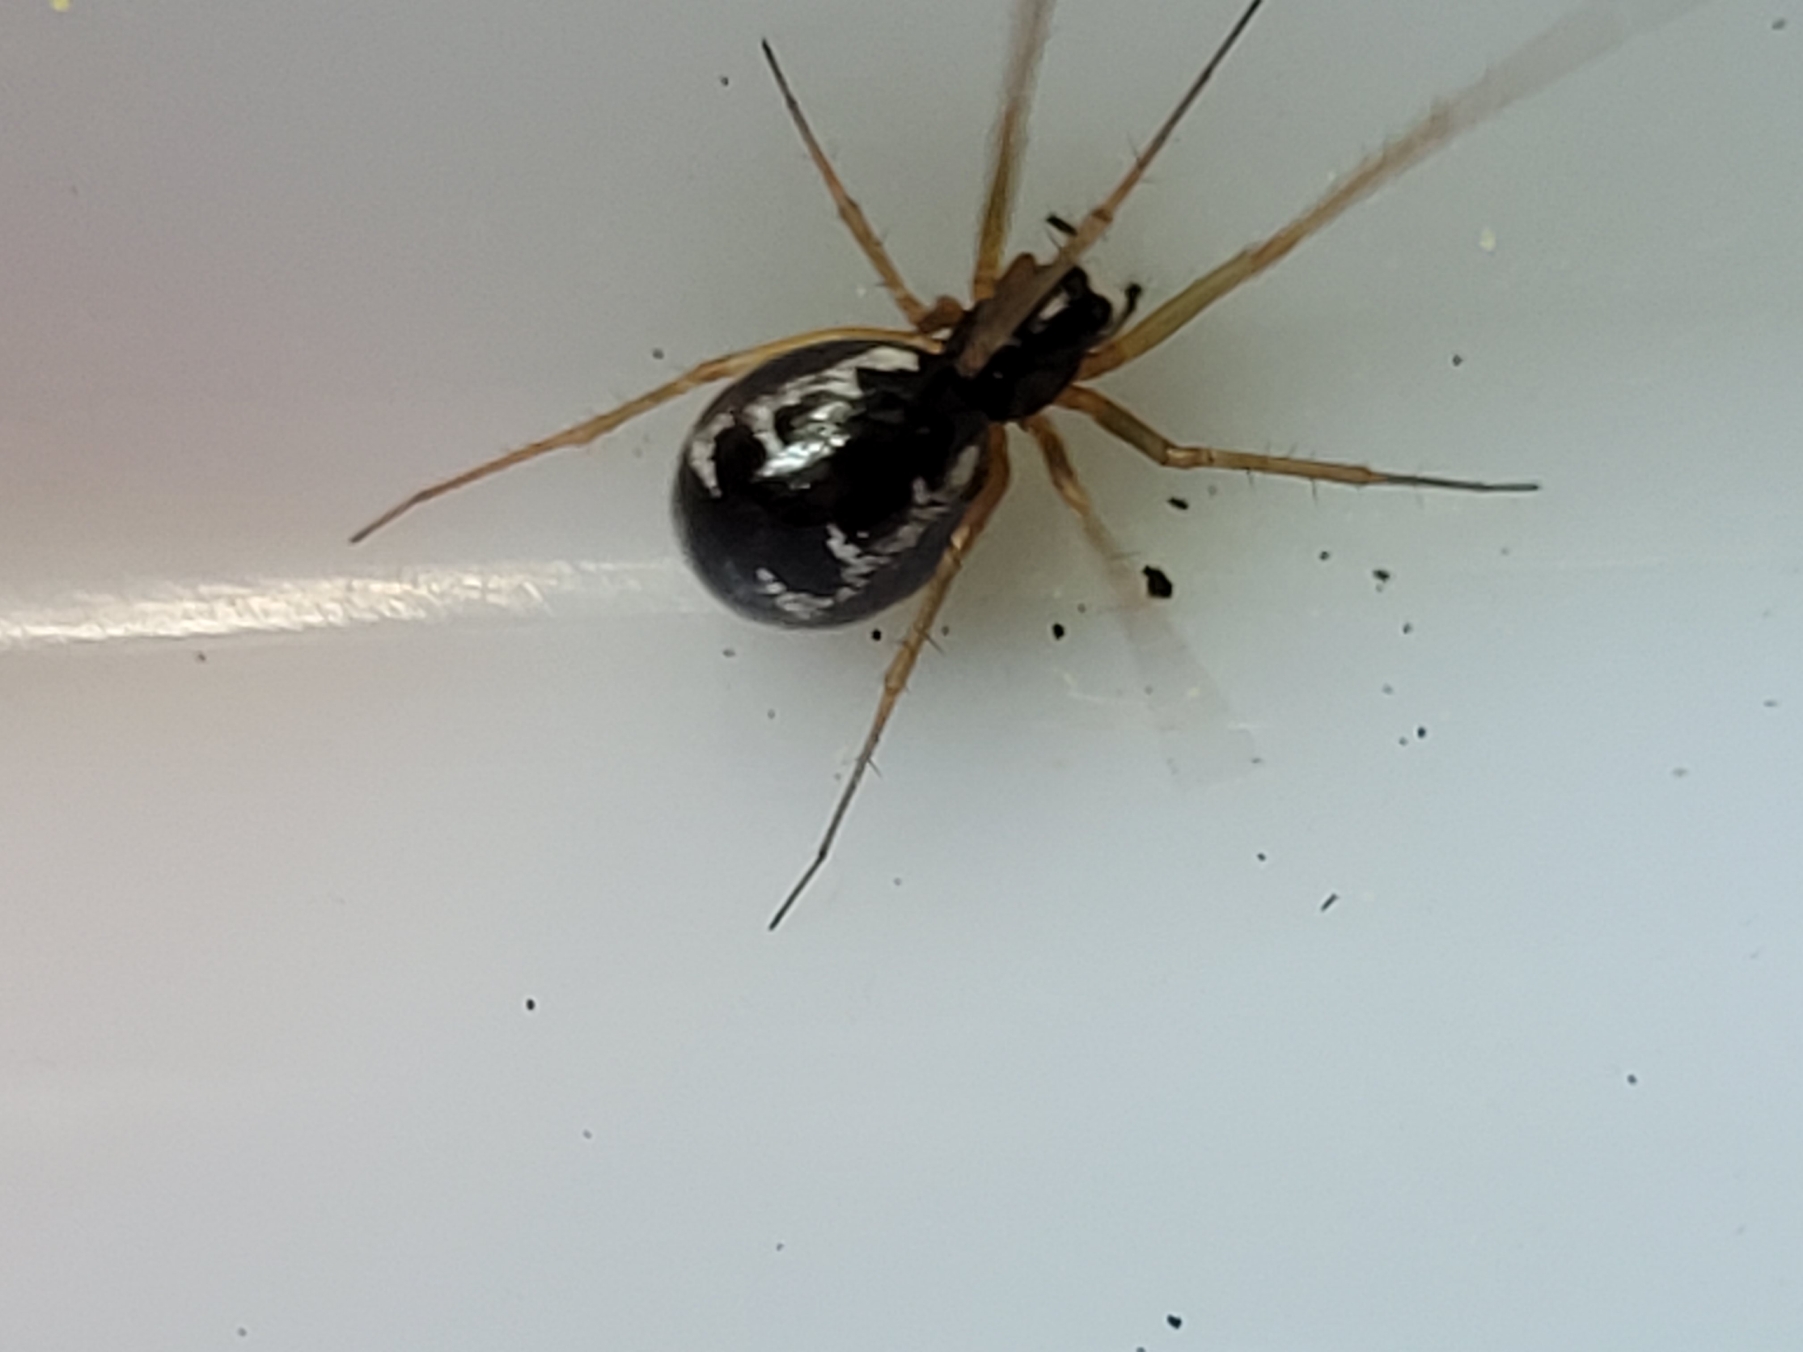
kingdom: Animalia
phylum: Arthropoda
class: Arachnida
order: Araneae
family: Linyphiidae
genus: Linyphia
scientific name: Linyphia hortensis
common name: Skovbaldakinspinder
